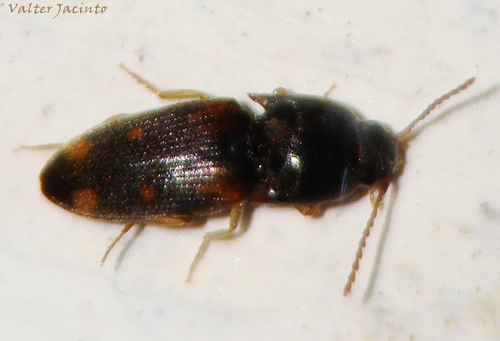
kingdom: Animalia
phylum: Arthropoda
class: Insecta
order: Coleoptera
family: Elateridae
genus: Drasterius
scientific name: Drasterius bimaculatus
